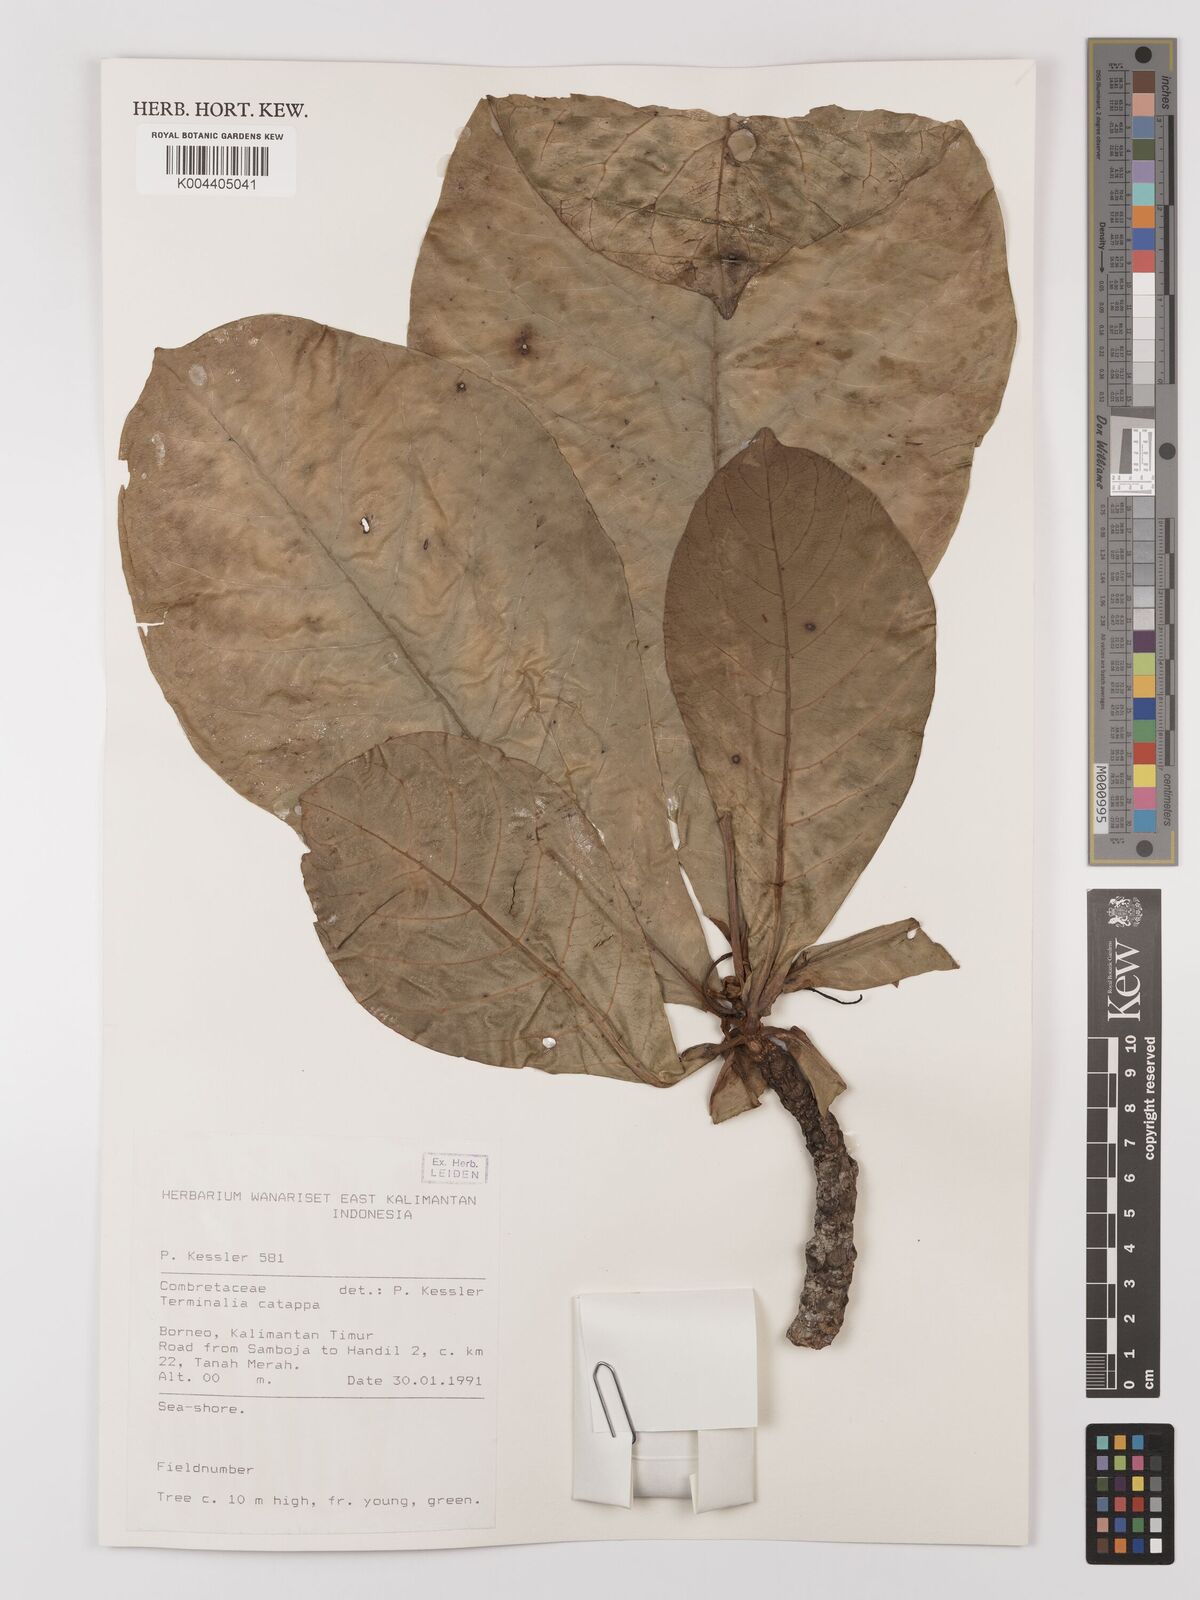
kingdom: Plantae
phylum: Tracheophyta
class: Magnoliopsida
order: Myrtales
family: Combretaceae
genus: Terminalia
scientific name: Terminalia catappa
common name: Tropical almond
